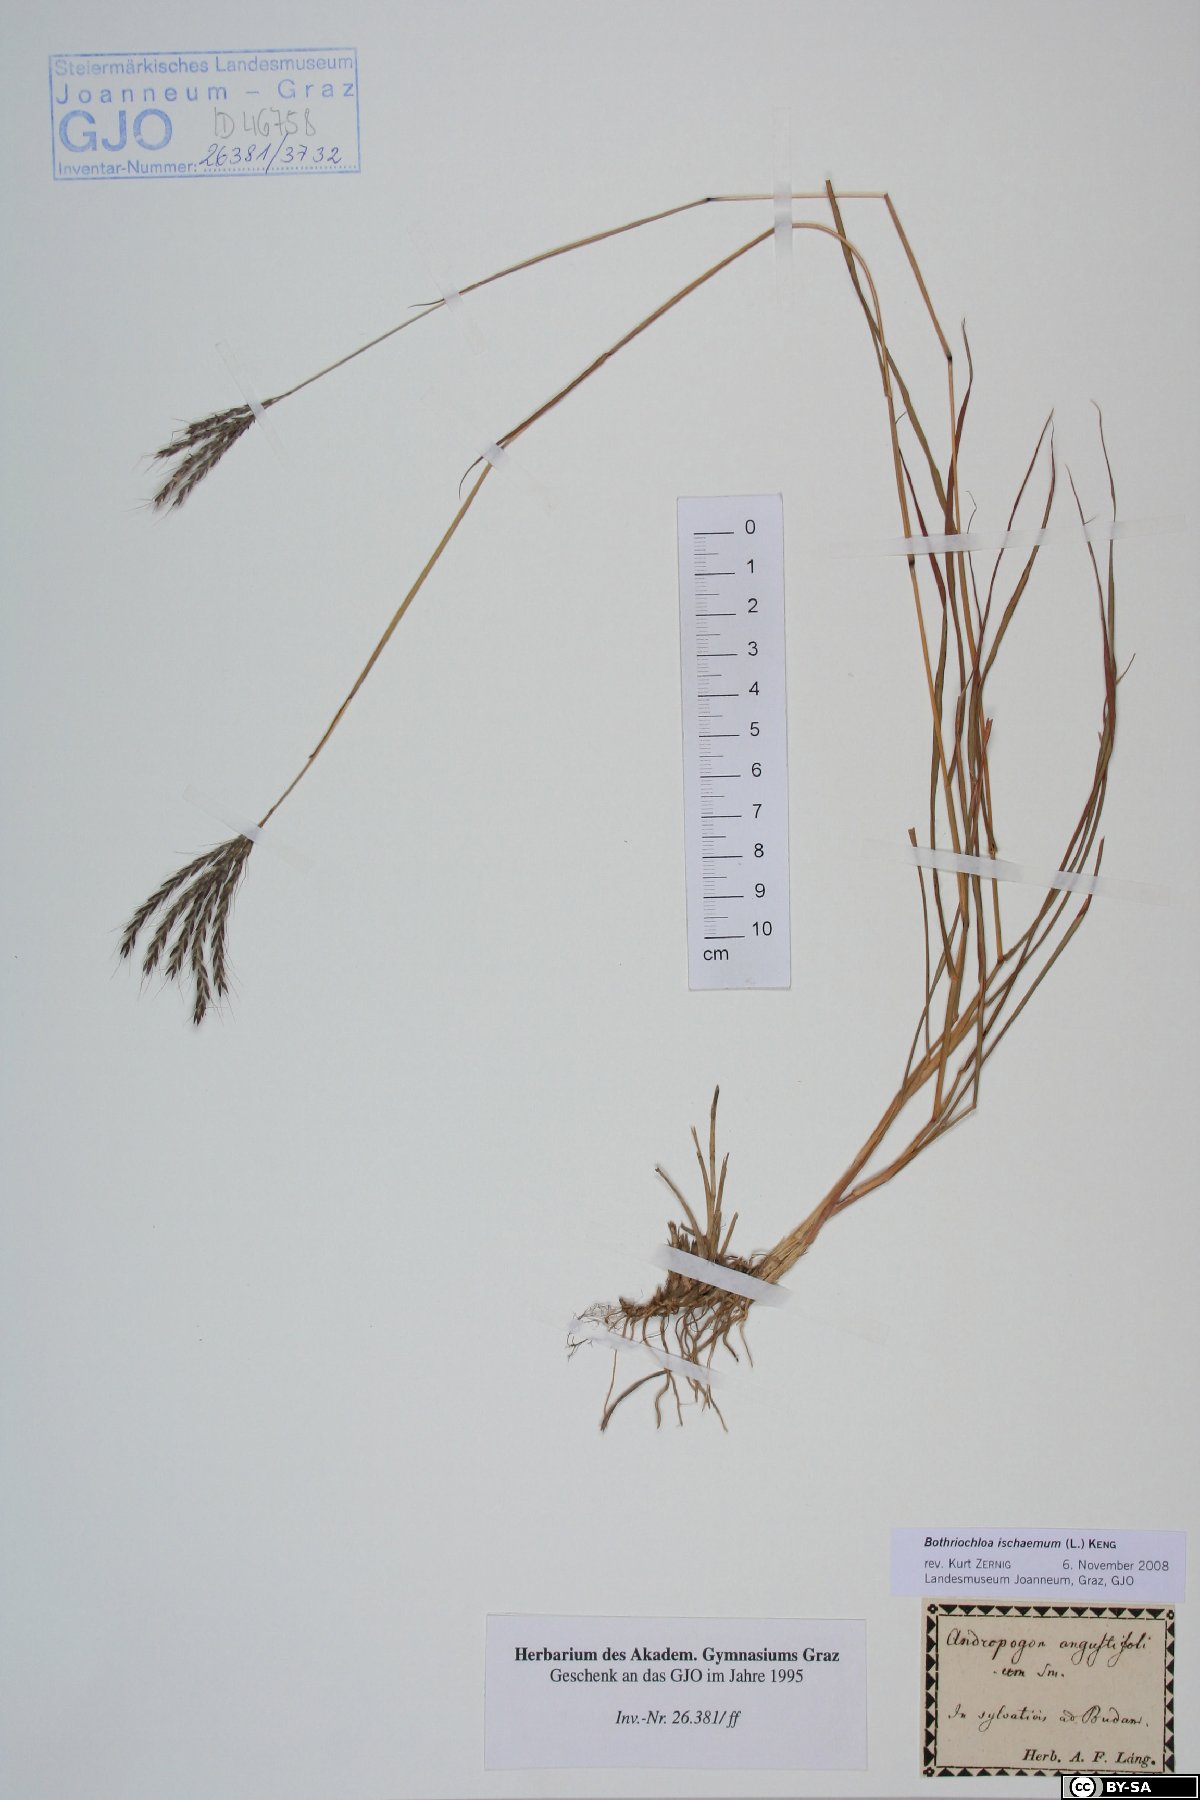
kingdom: Plantae
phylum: Tracheophyta
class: Liliopsida
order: Poales
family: Poaceae
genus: Bothriochloa
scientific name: Bothriochloa ischaemum
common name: Yellow bluestem
